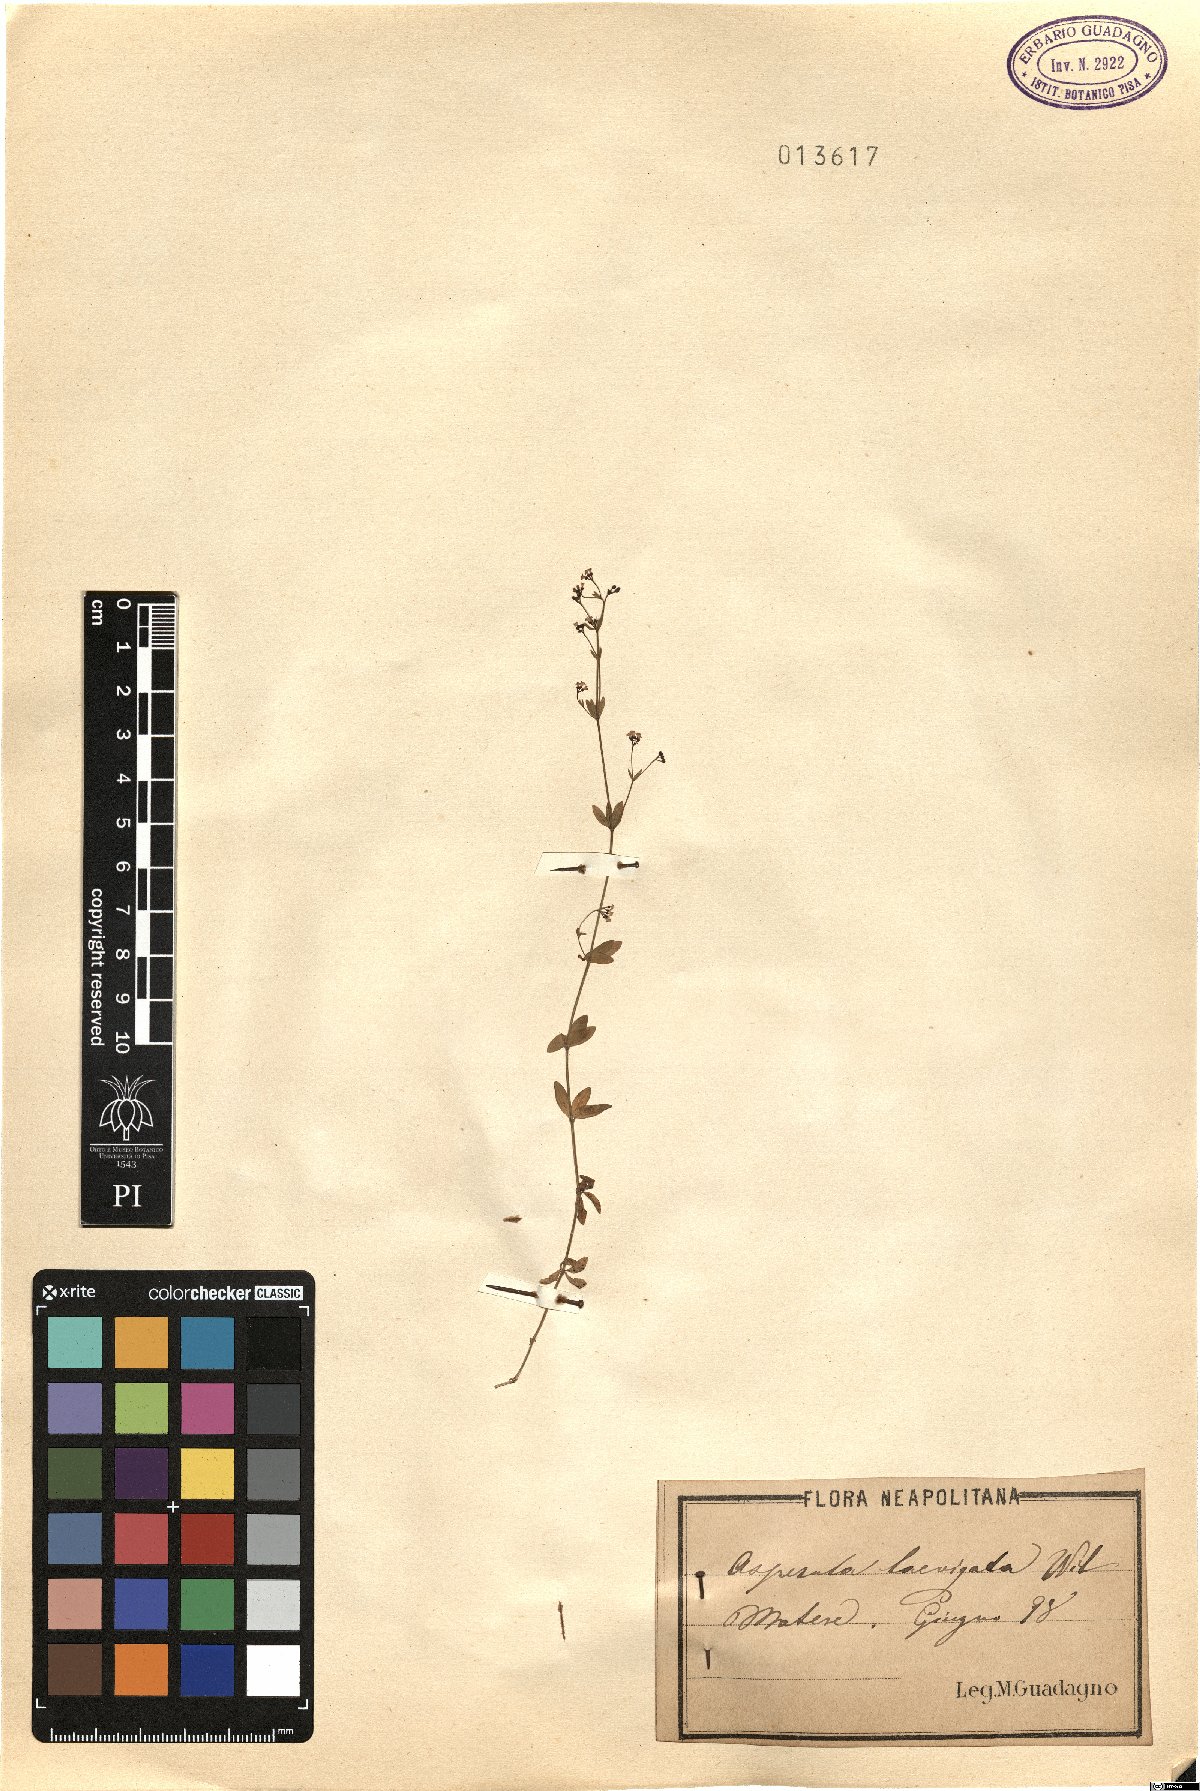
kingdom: Plantae
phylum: Tracheophyta
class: Magnoliopsida
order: Gentianales
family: Rubiaceae
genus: Asperula
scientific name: Asperula laevigata
